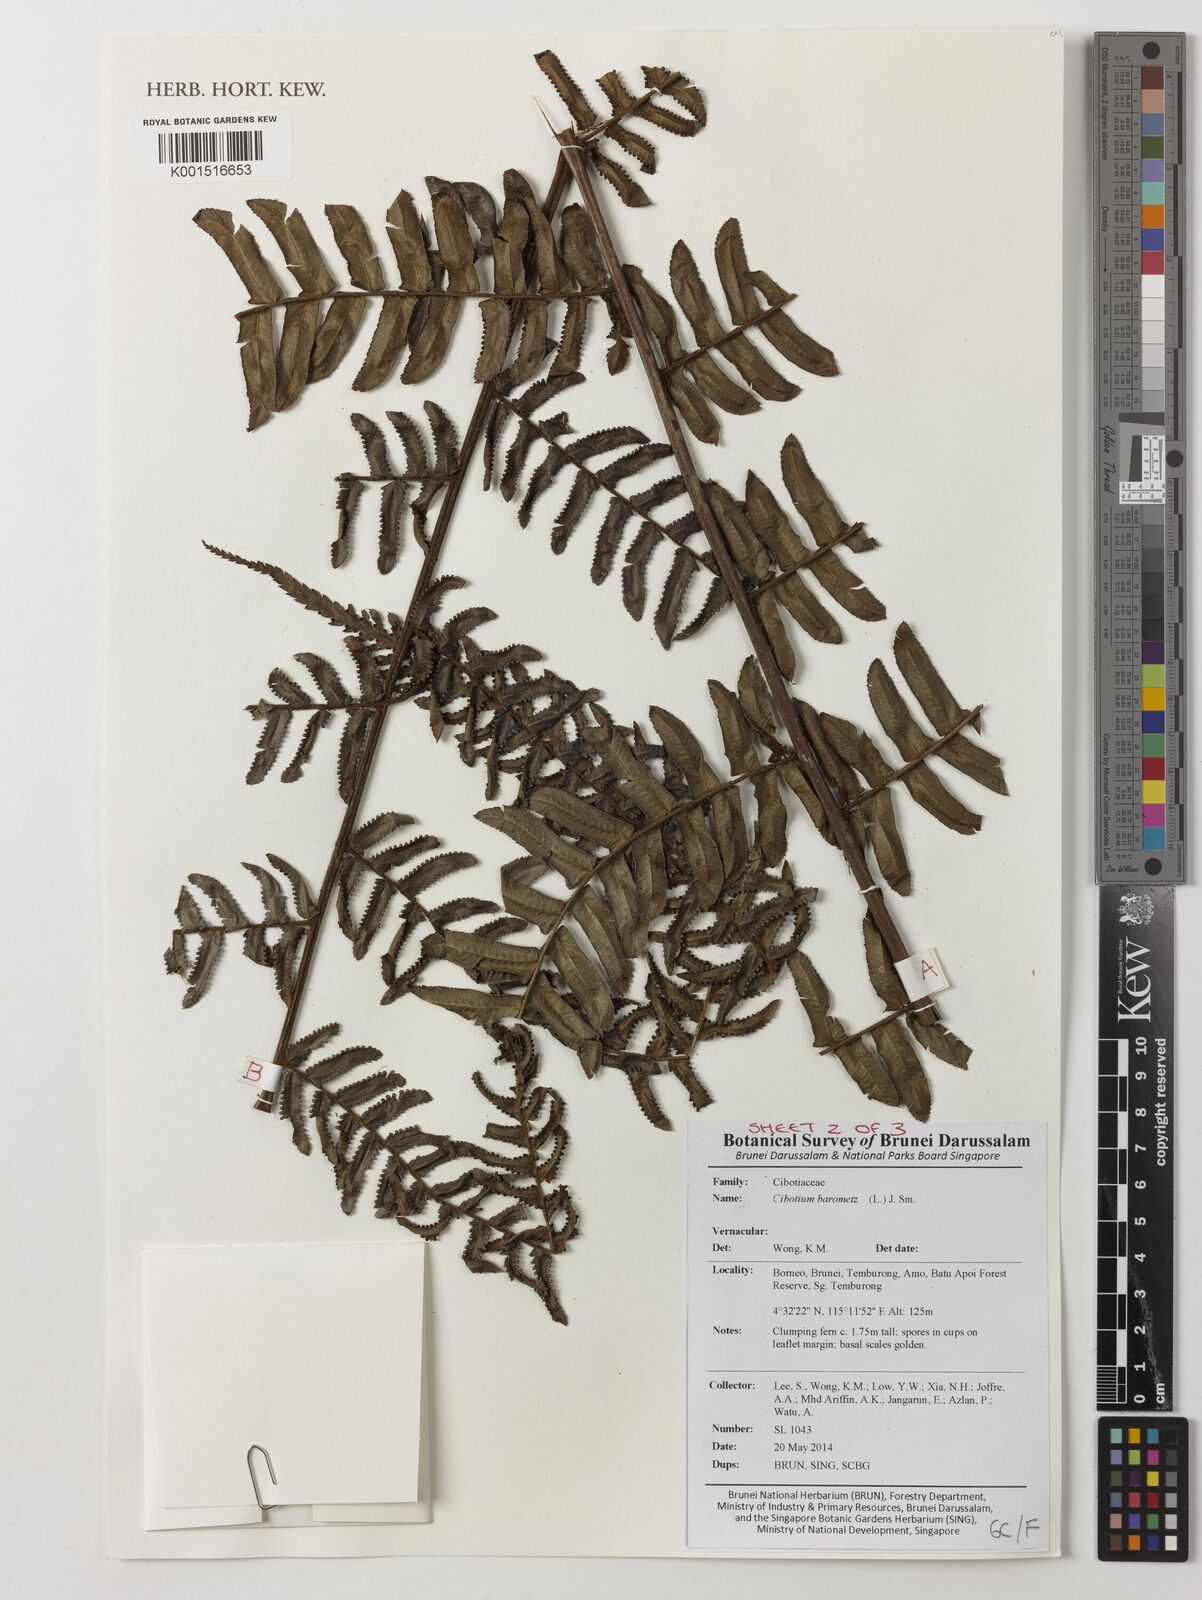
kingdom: Plantae
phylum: Tracheophyta
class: Polypodiopsida
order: Cyatheales
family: Cibotiaceae
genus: Cibotium
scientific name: Cibotium barometz
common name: Scythian-lamb
